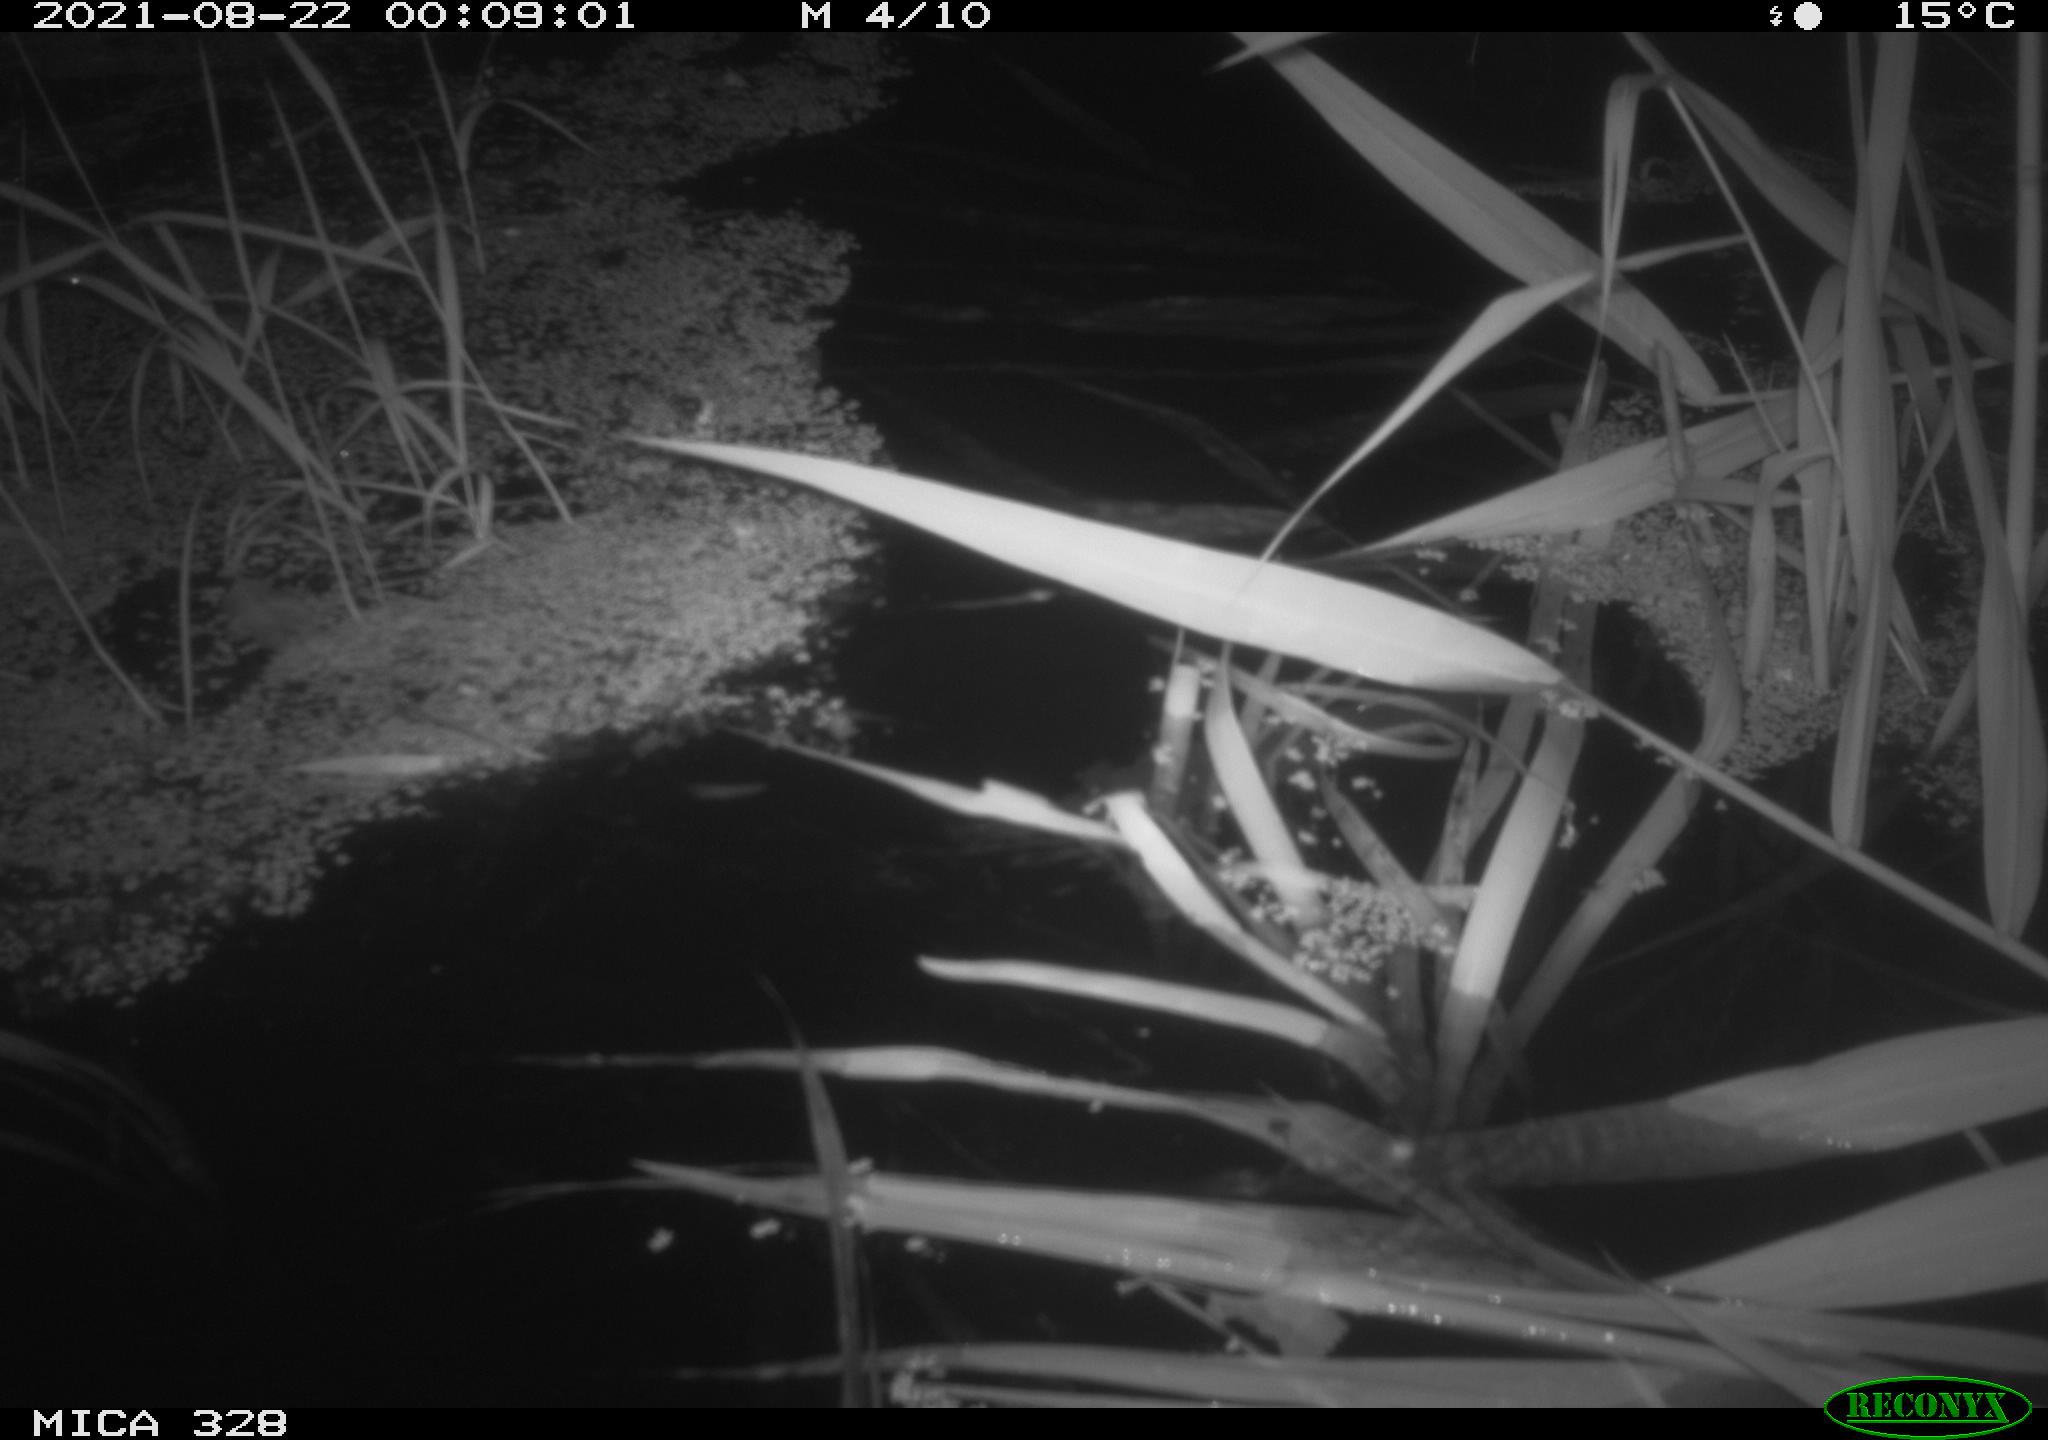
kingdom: Animalia
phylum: Chordata
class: Mammalia
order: Rodentia
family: Cricetidae
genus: Ondatra
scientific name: Ondatra zibethicus
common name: Muskrat
